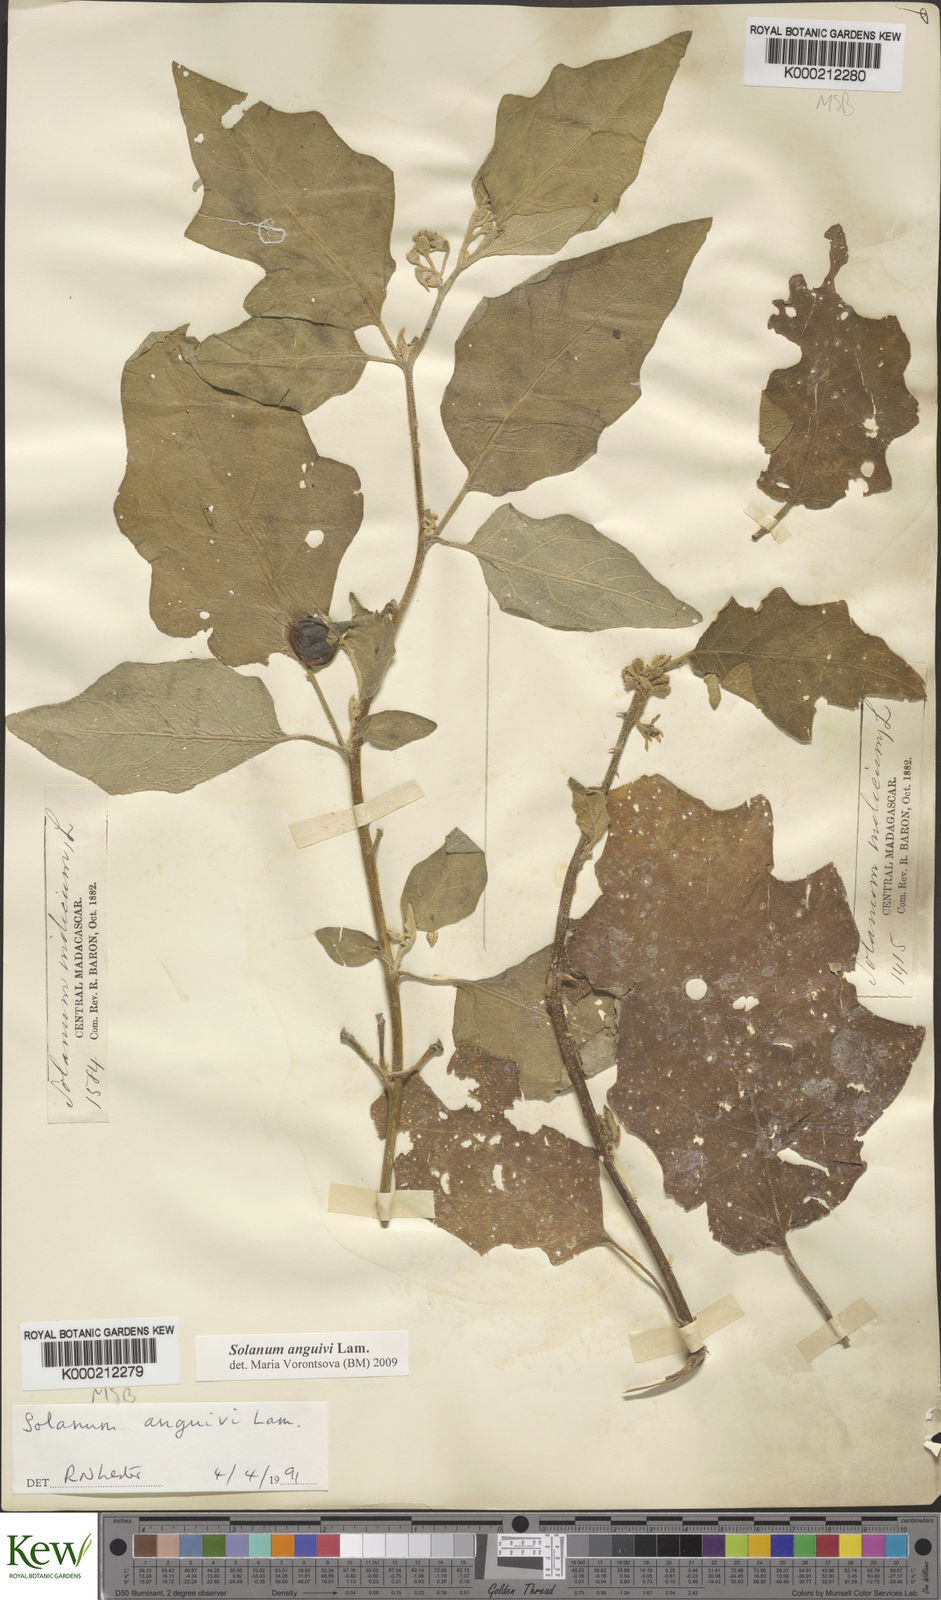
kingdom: Plantae
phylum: Tracheophyta
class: Magnoliopsida
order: Solanales
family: Solanaceae
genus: Solanum
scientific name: Solanum anguivi
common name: Forest bitterberry
